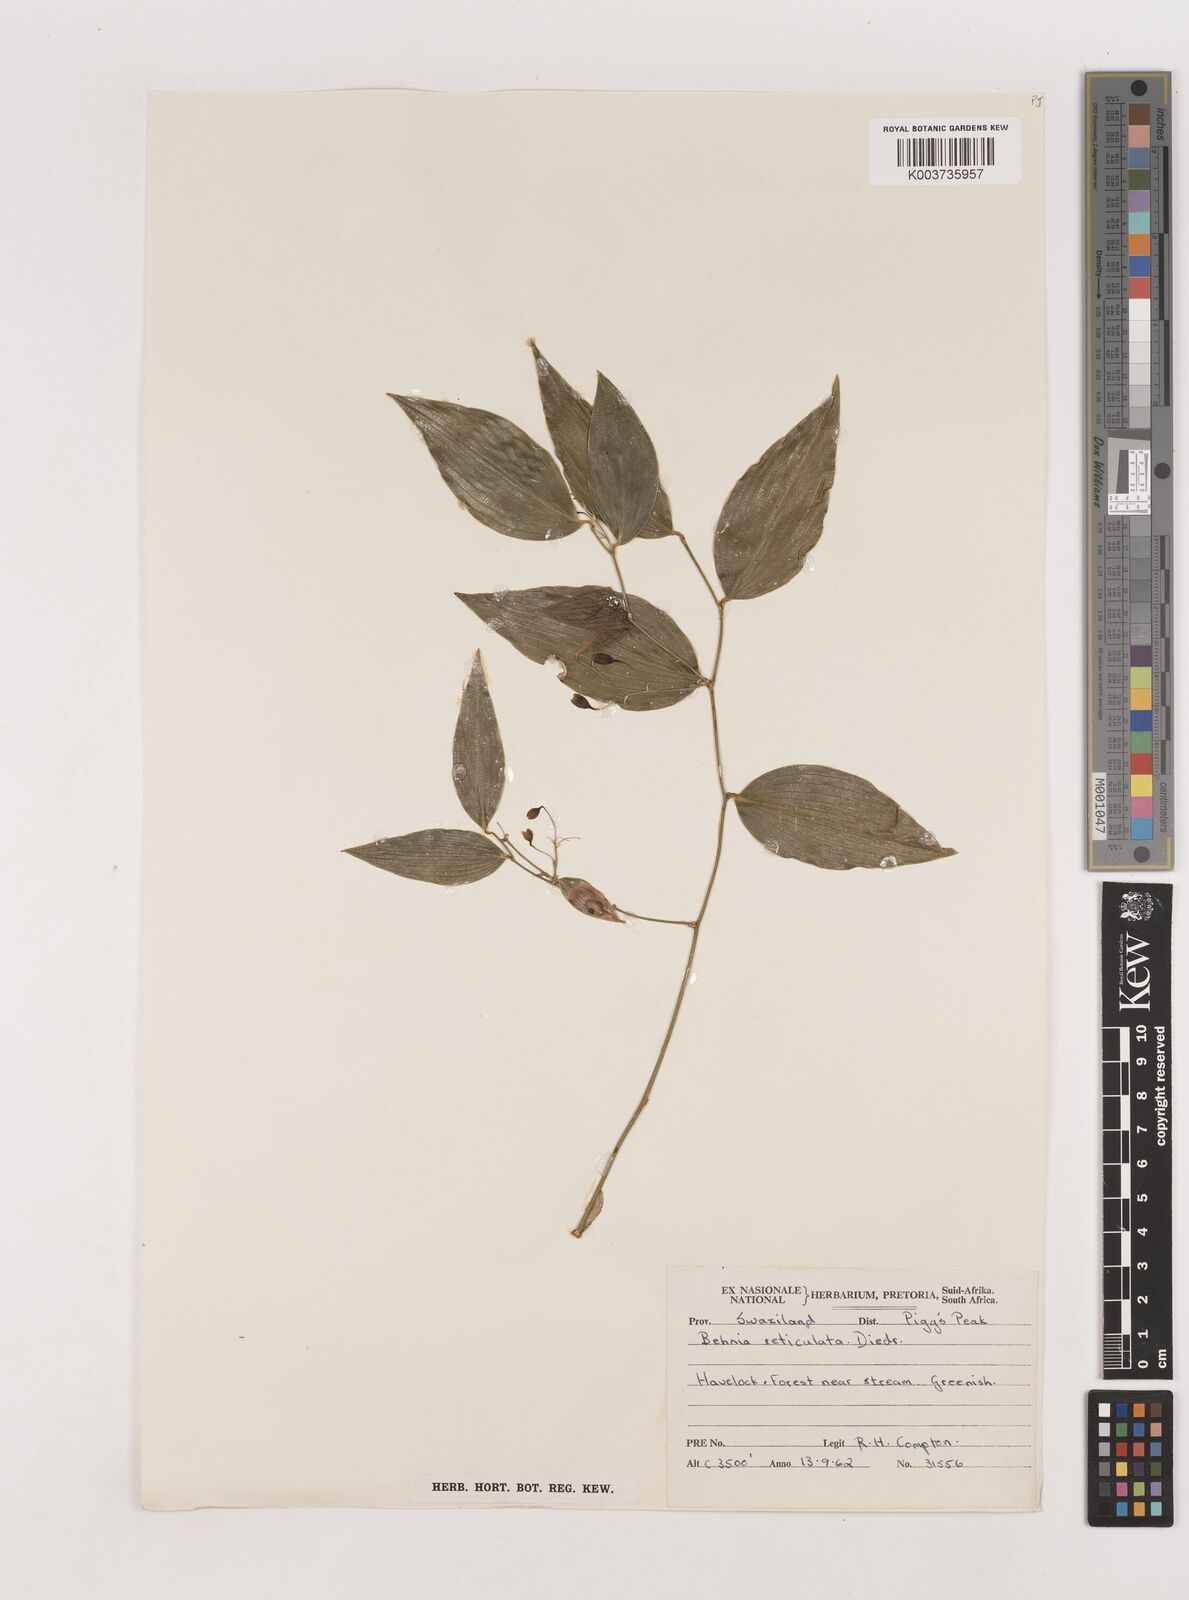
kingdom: Plantae
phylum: Tracheophyta
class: Liliopsida
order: Asparagales
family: Asparagaceae
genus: Behnia
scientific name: Behnia reticulata
